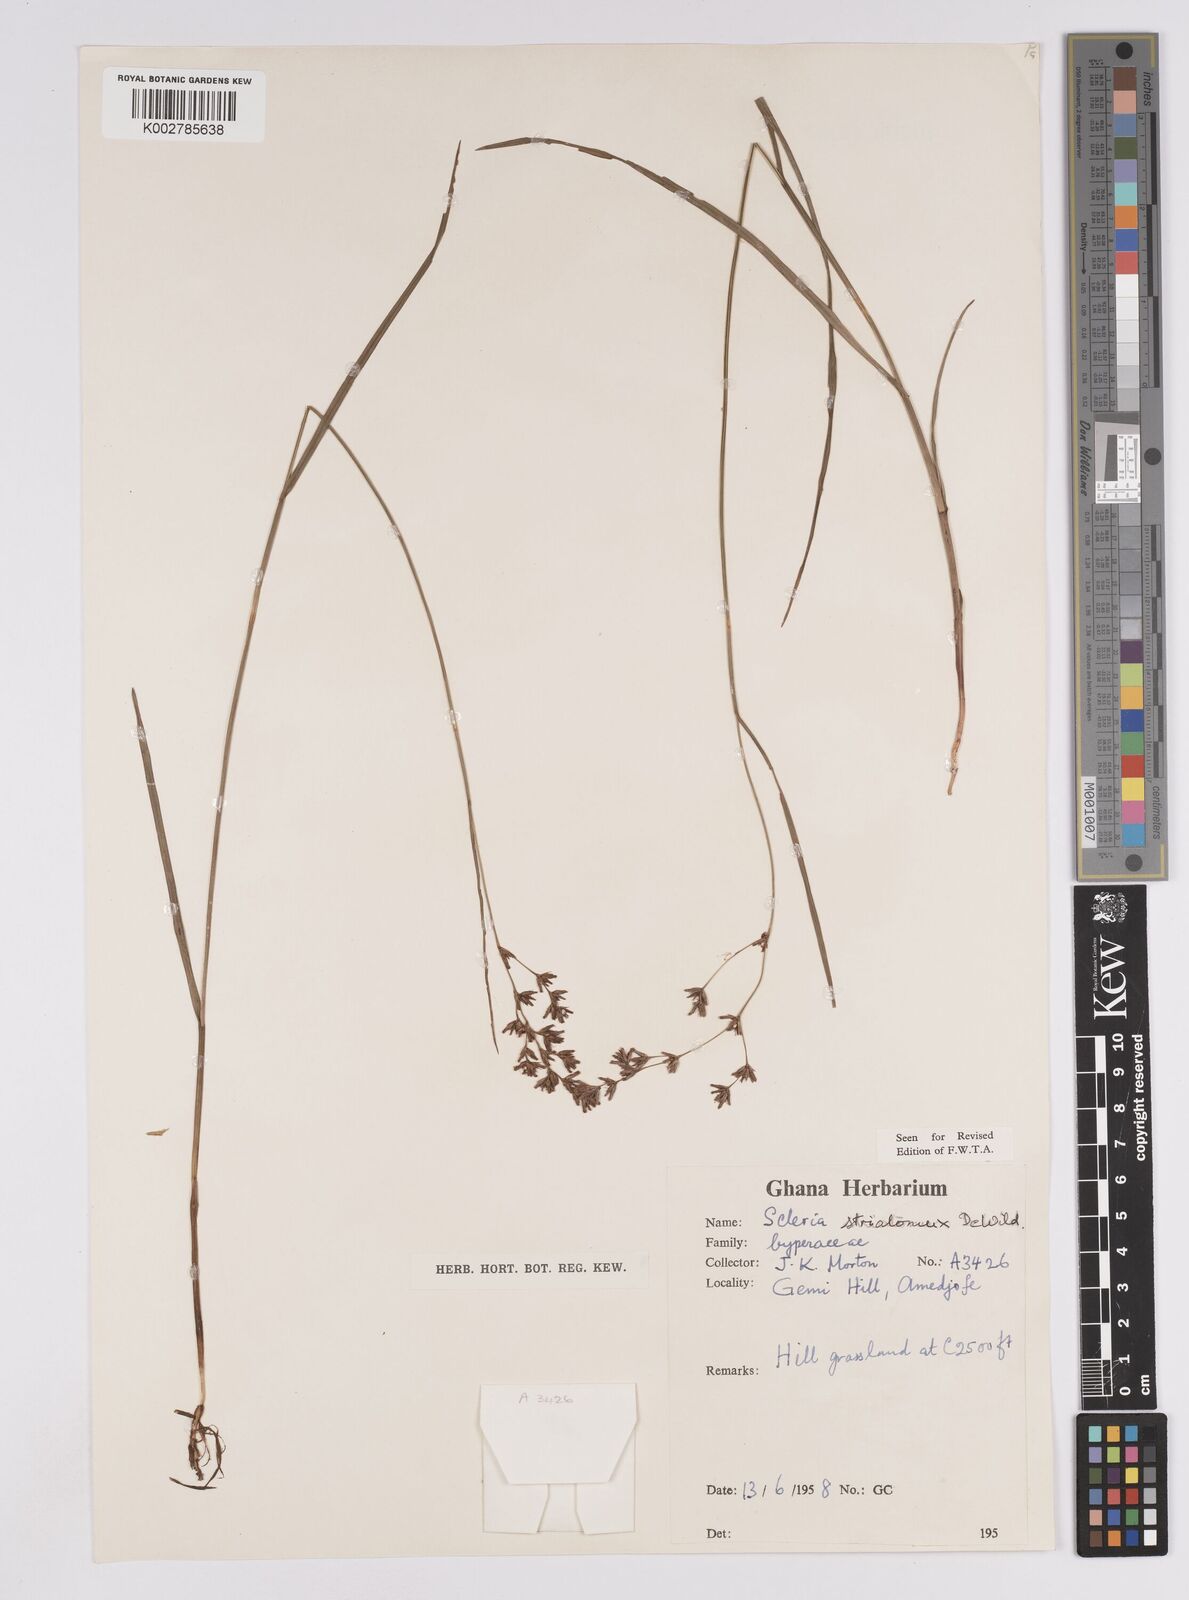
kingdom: Plantae
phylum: Tracheophyta
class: Liliopsida
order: Poales
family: Cyperaceae
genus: Scleria
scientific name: Scleria woodii
